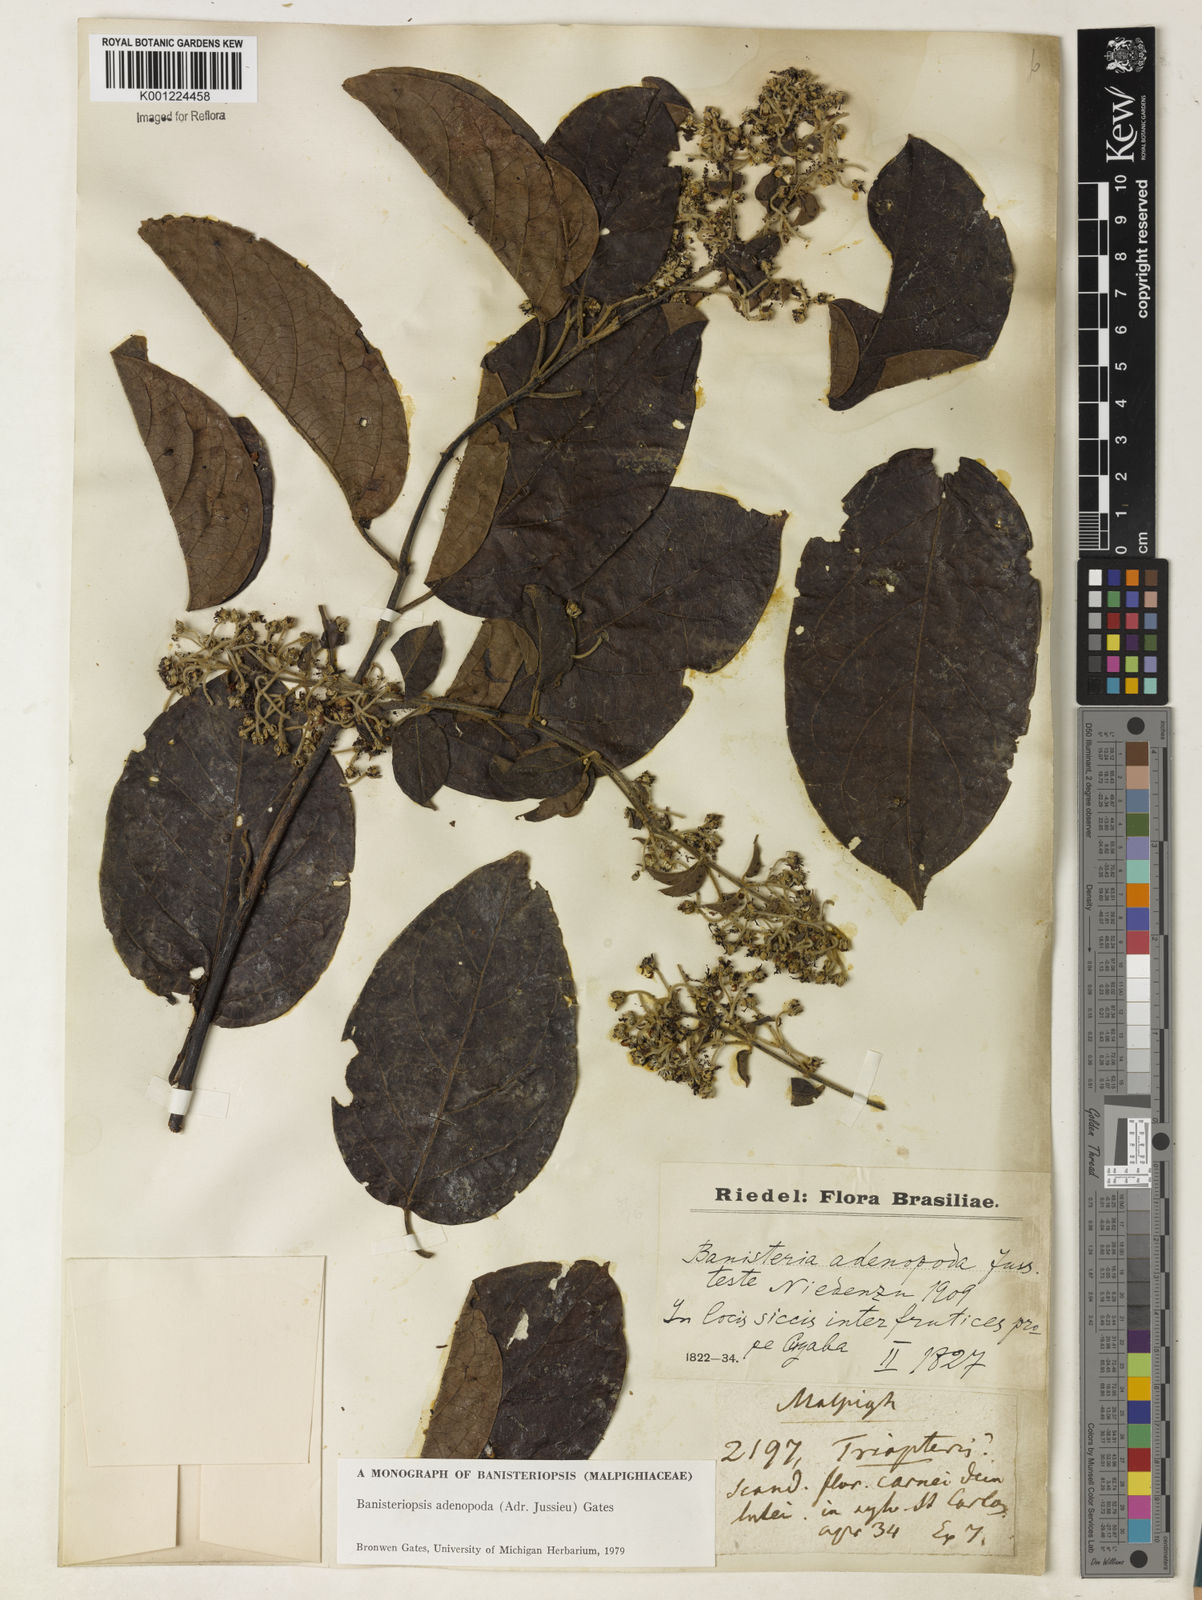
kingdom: Plantae
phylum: Tracheophyta
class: Magnoliopsida
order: Malpighiales
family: Malpighiaceae
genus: Banisteriopsis
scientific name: Banisteriopsis adenopoda
